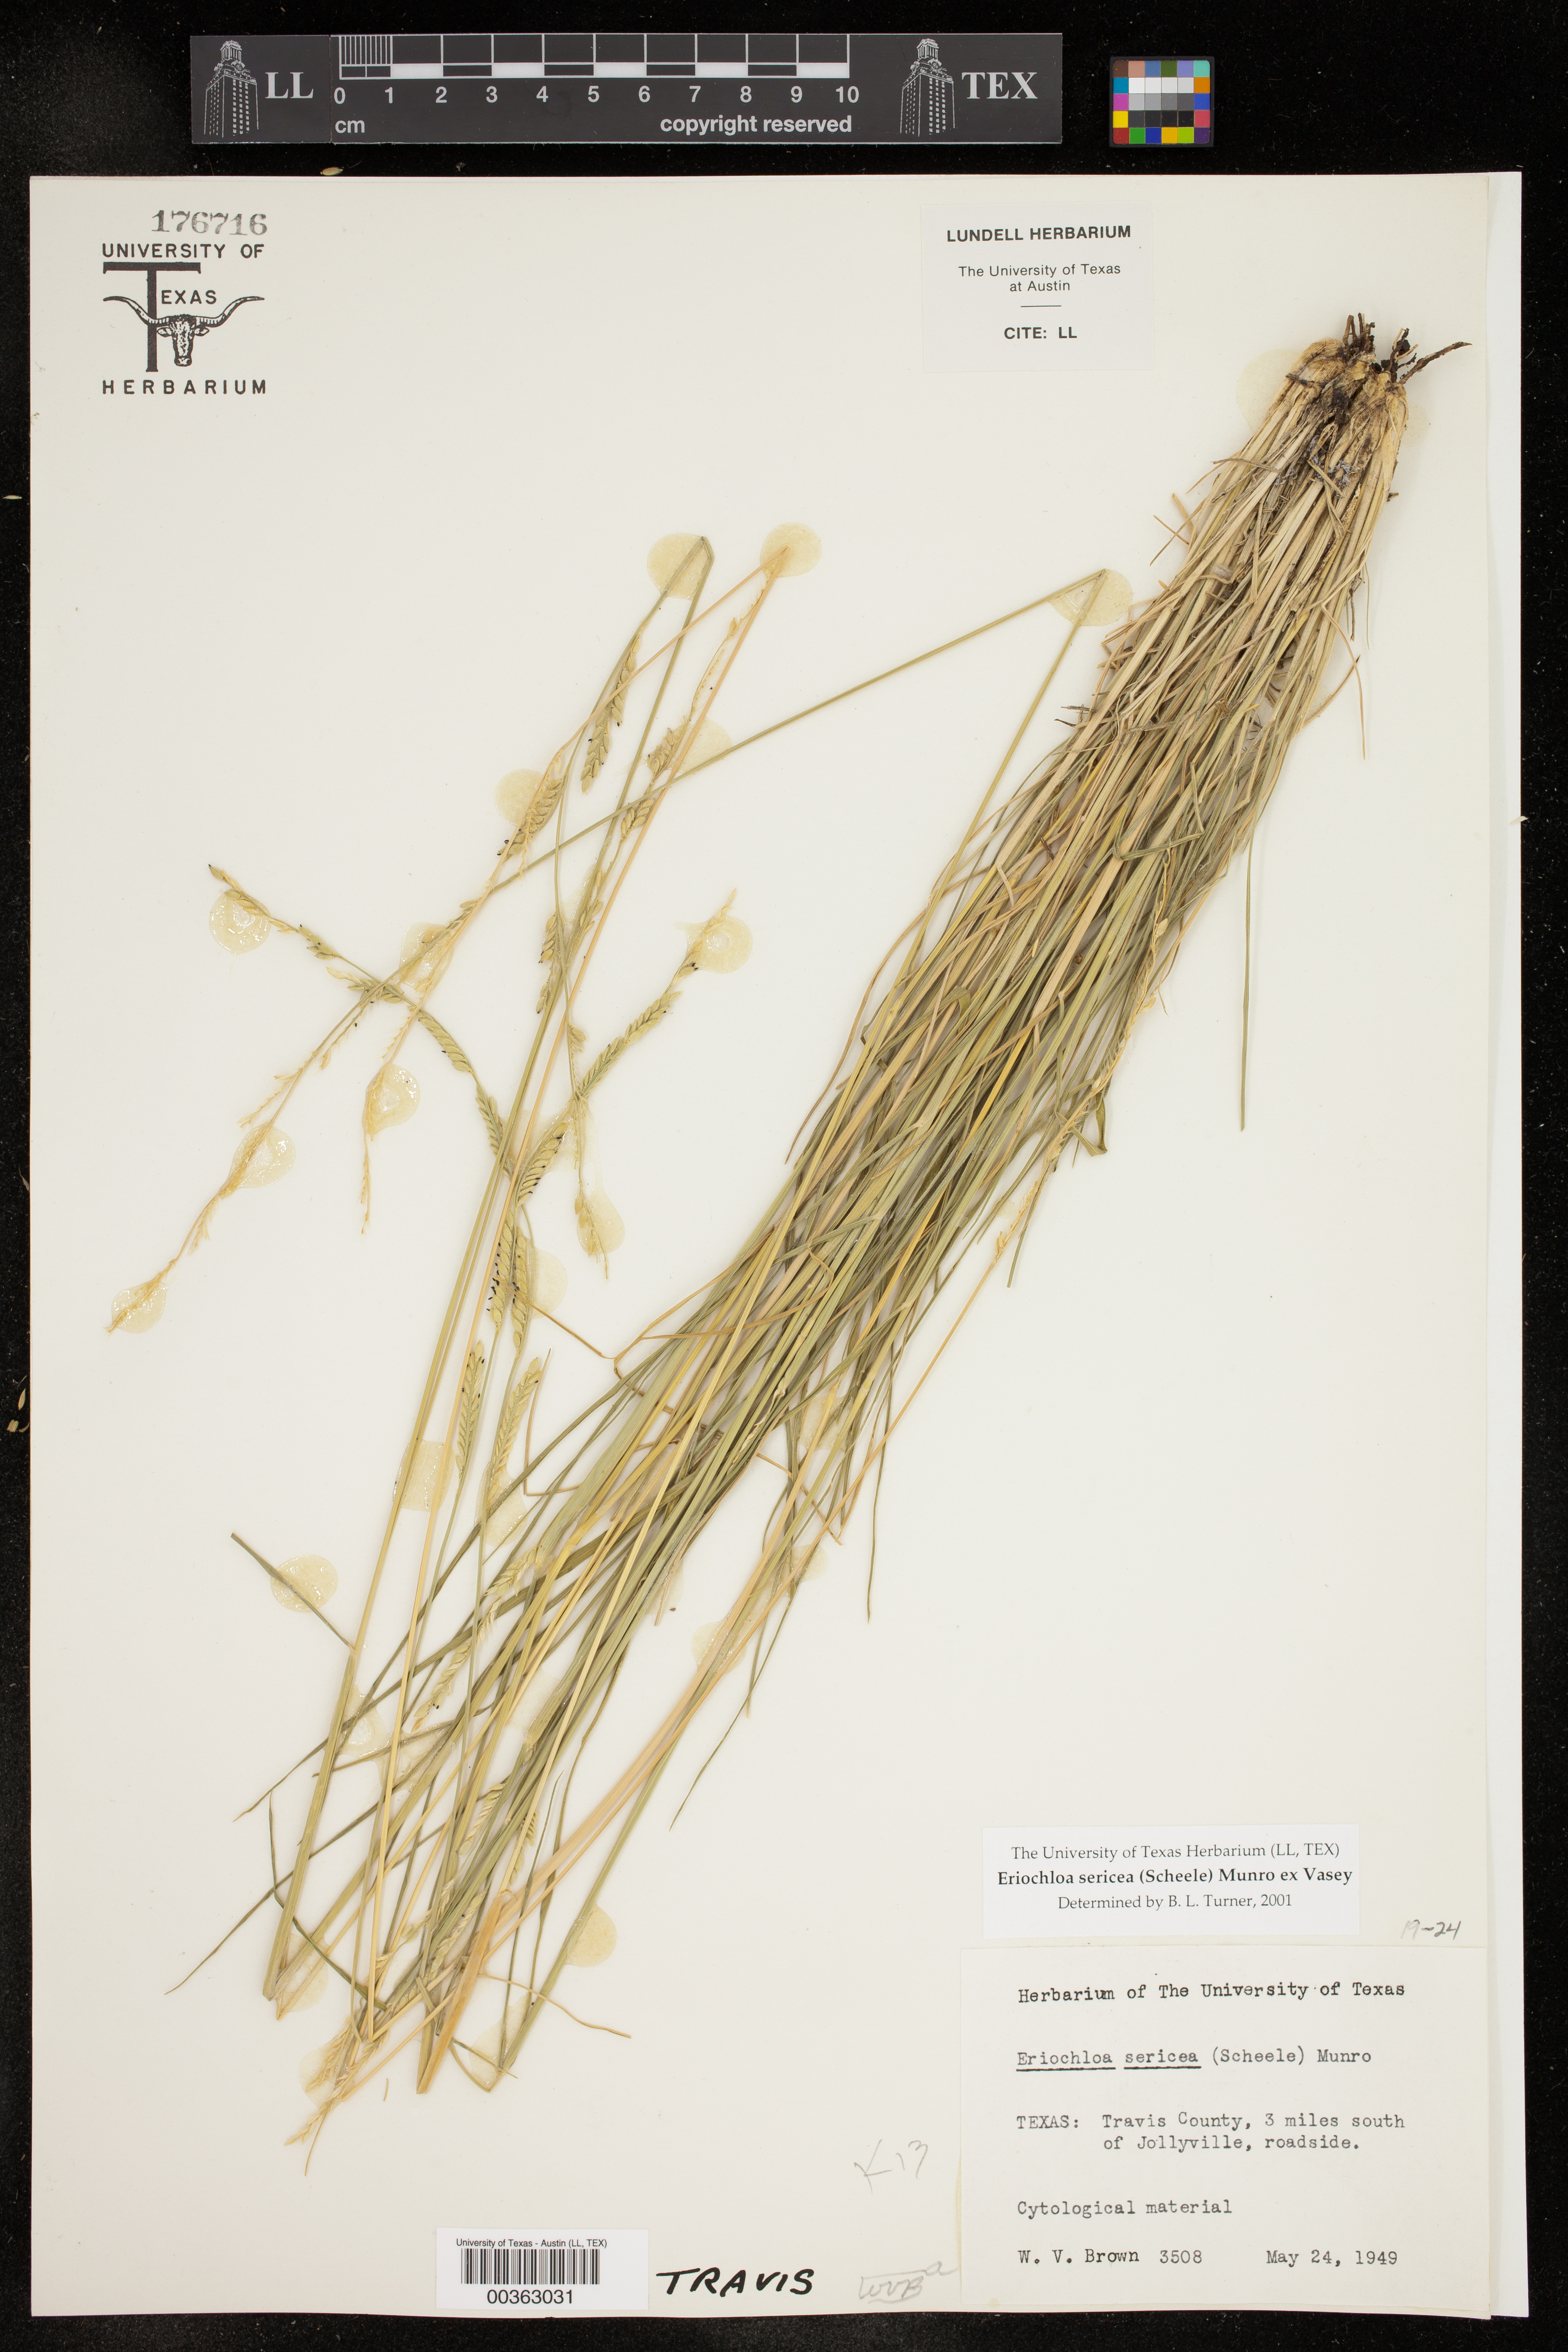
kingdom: Plantae
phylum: Tracheophyta
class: Liliopsida
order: Poales
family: Poaceae
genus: Eriochloa
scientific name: Eriochloa sericea
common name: Texas cup grass
